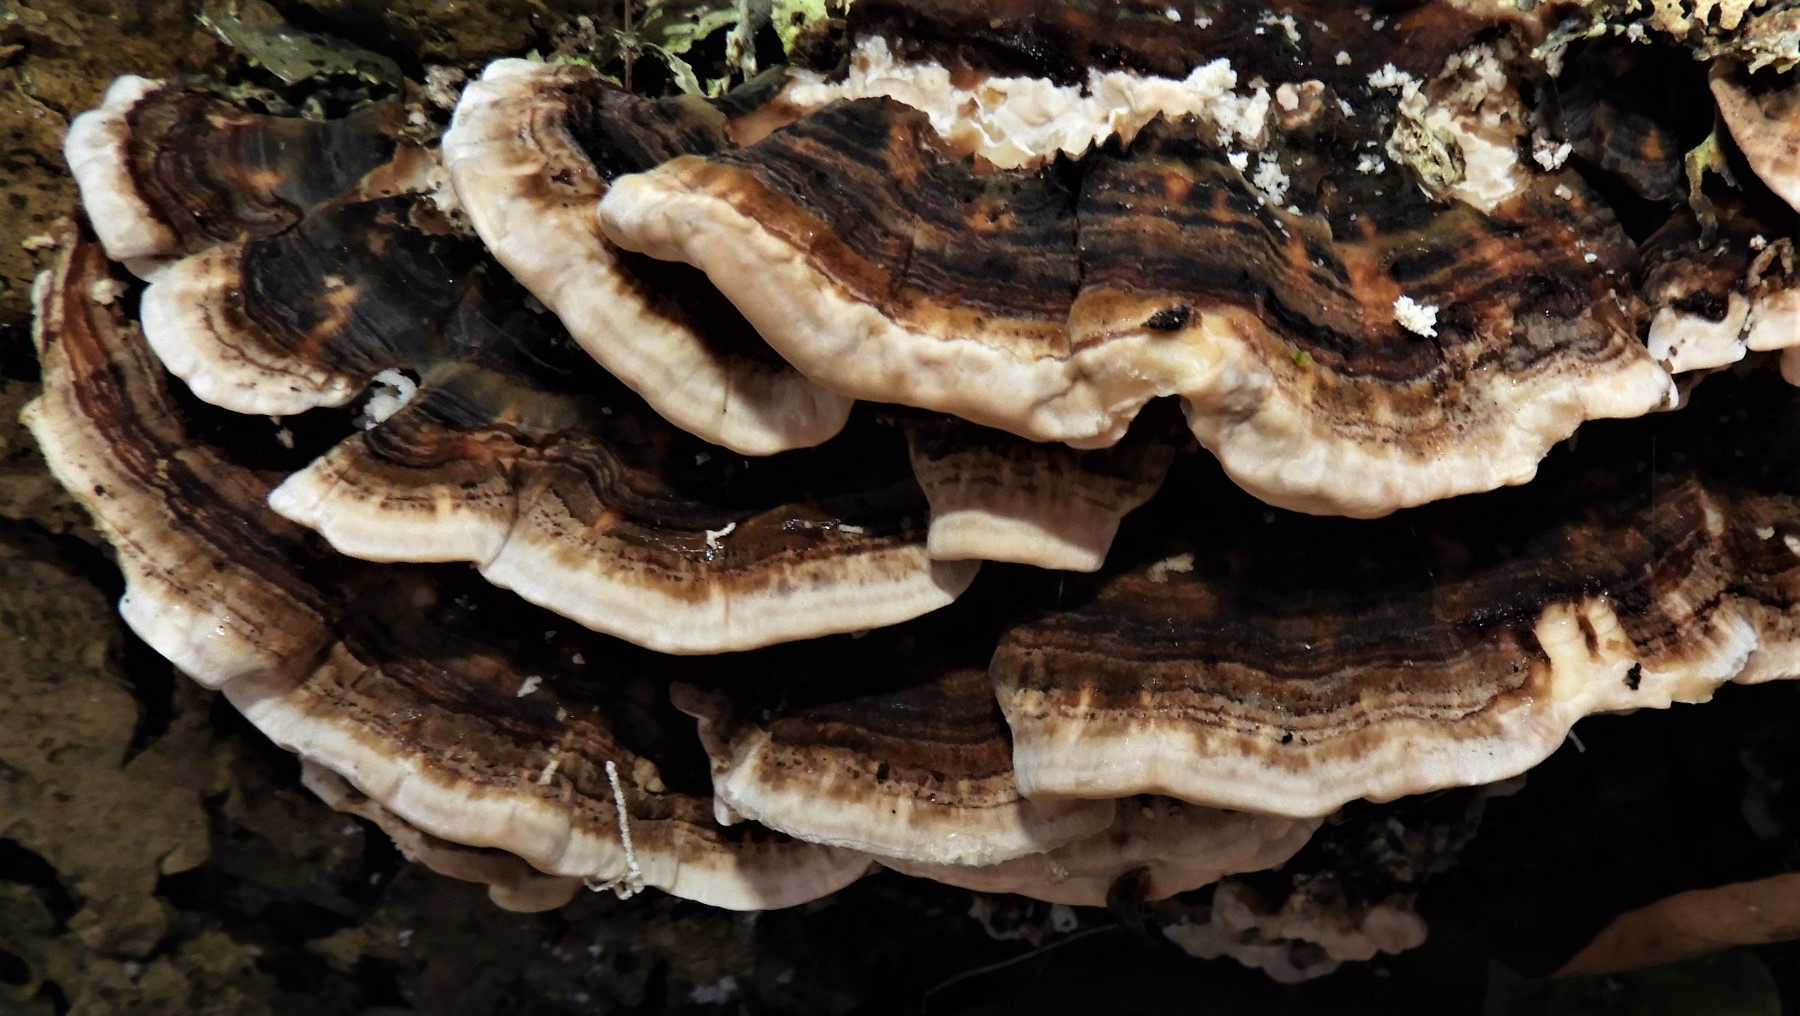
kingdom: Fungi
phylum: Basidiomycota
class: Agaricomycetes
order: Polyporales
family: Phanerochaetaceae
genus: Bjerkandera
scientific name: Bjerkandera adusta
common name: sveden sodporesvamp
